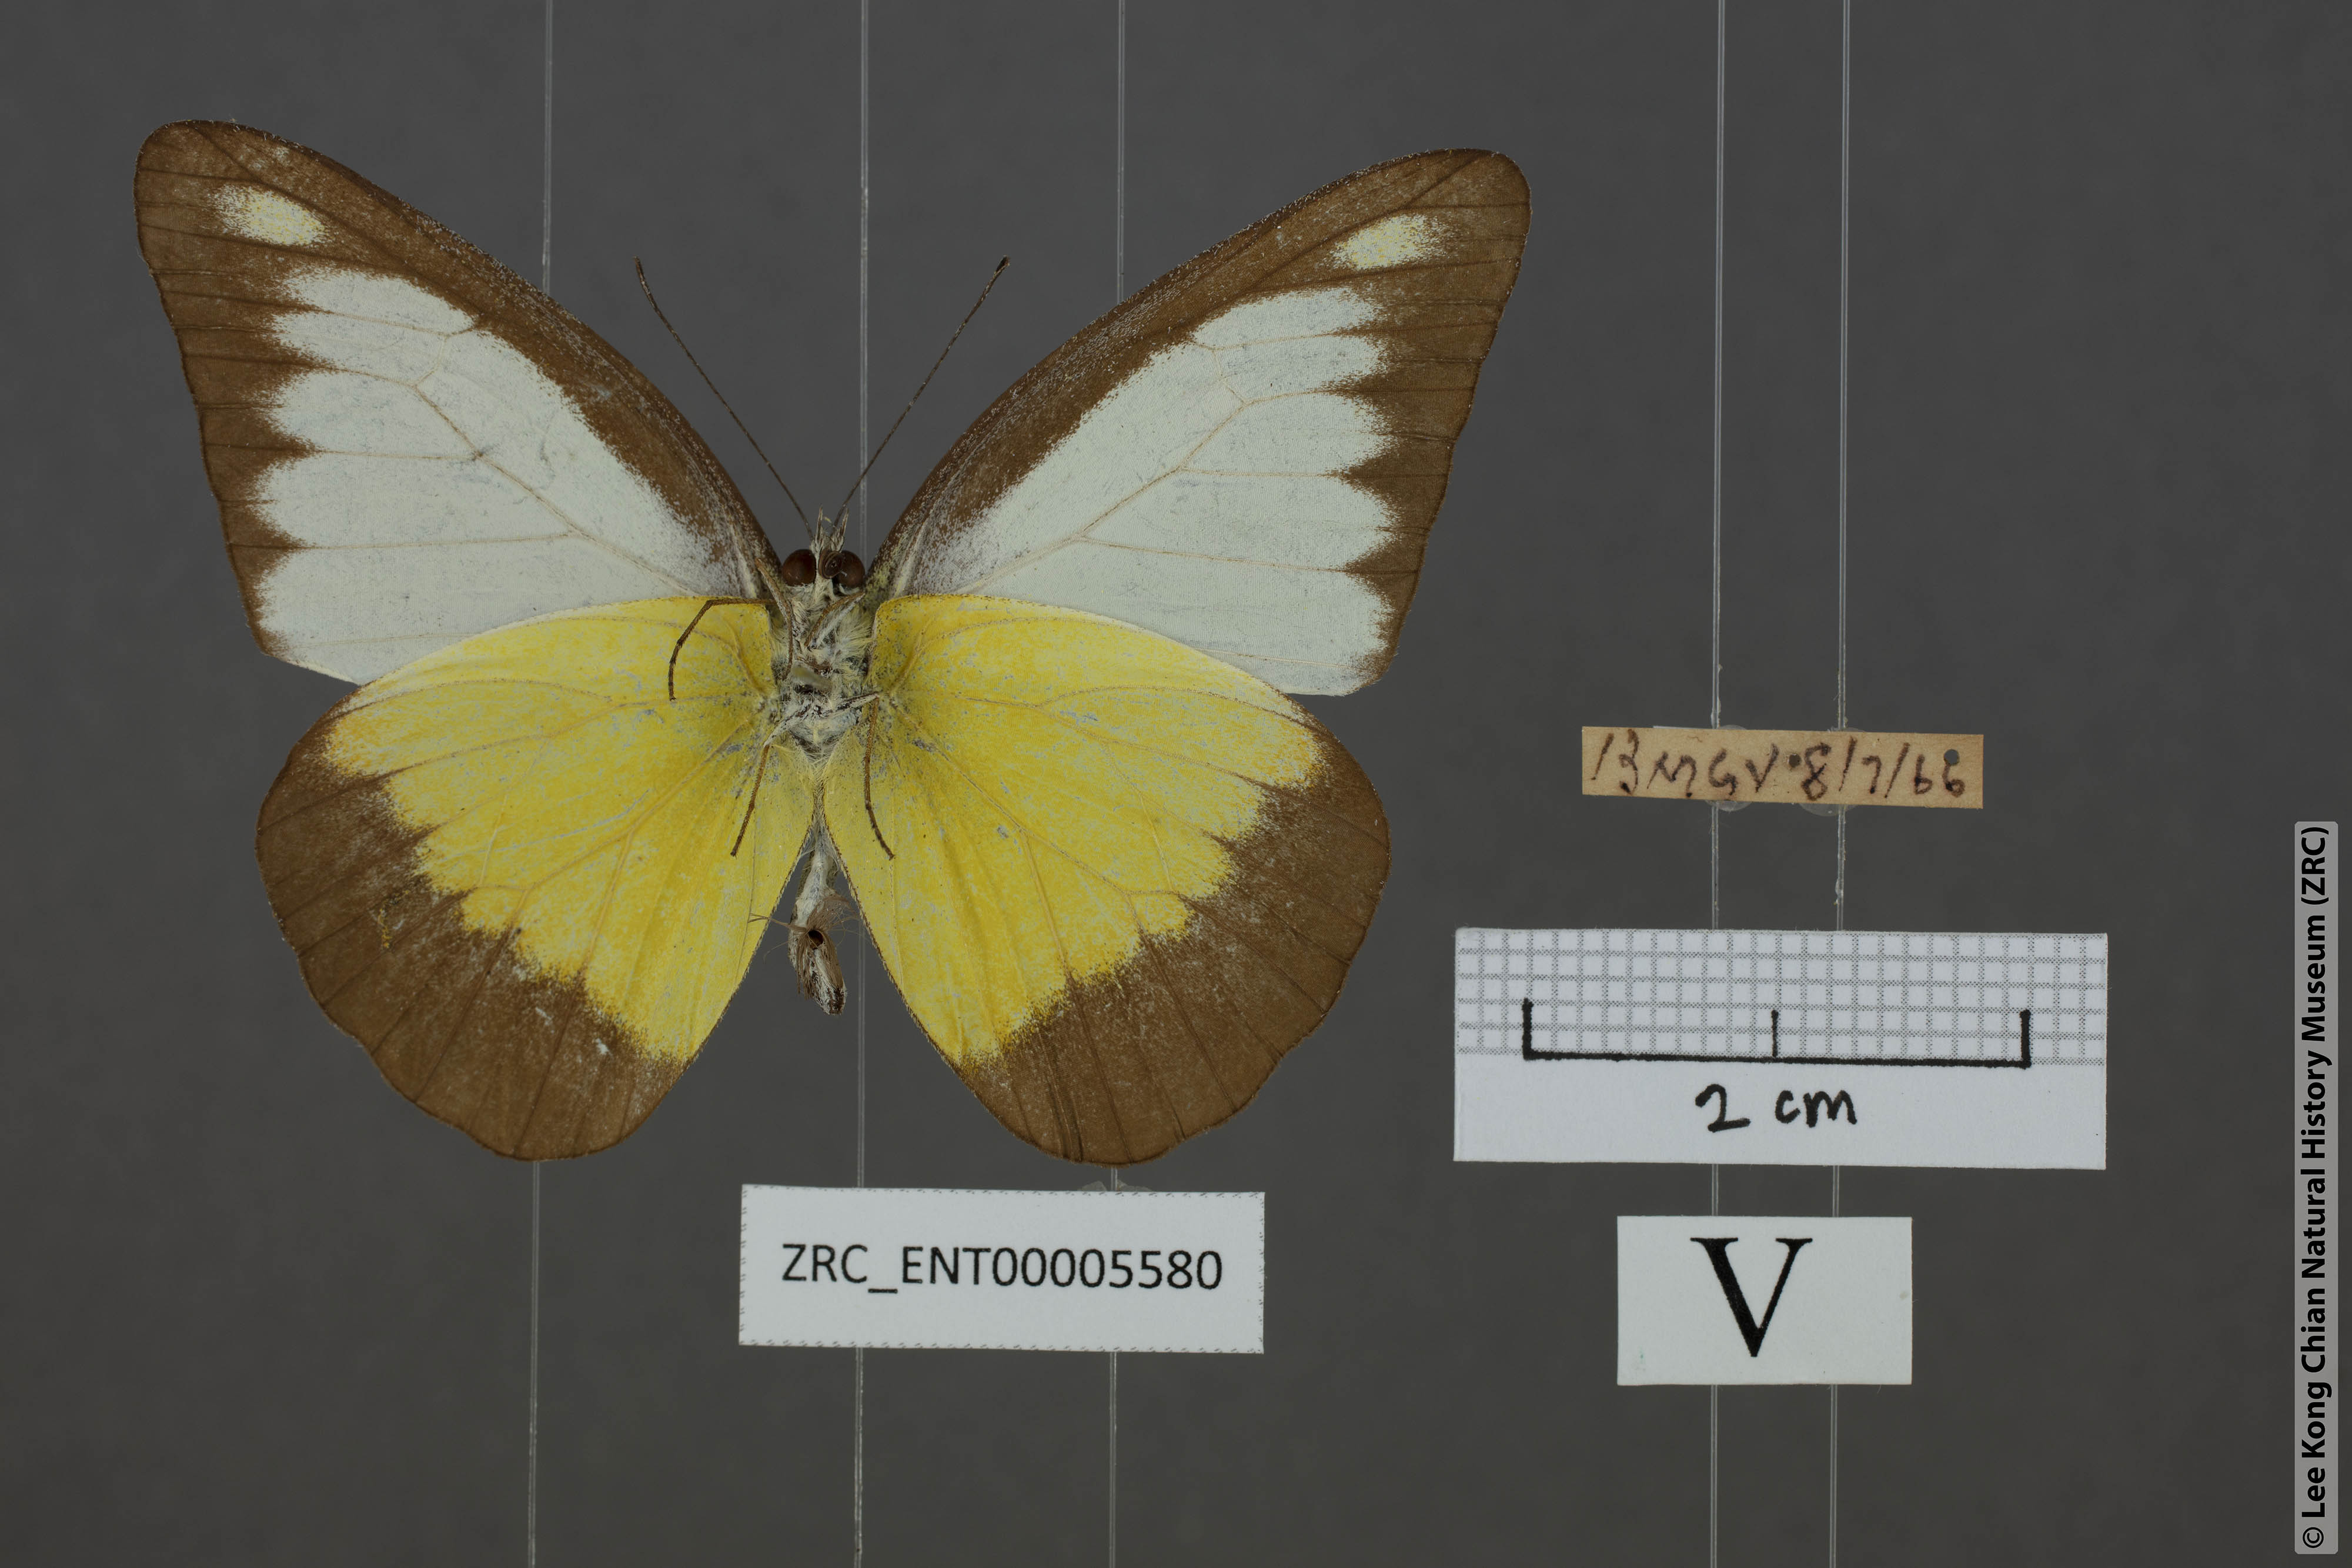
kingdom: Animalia
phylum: Arthropoda
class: Insecta
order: Lepidoptera
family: Pieridae
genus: Appias
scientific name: Appias lyncida
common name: Chocolate albatross
